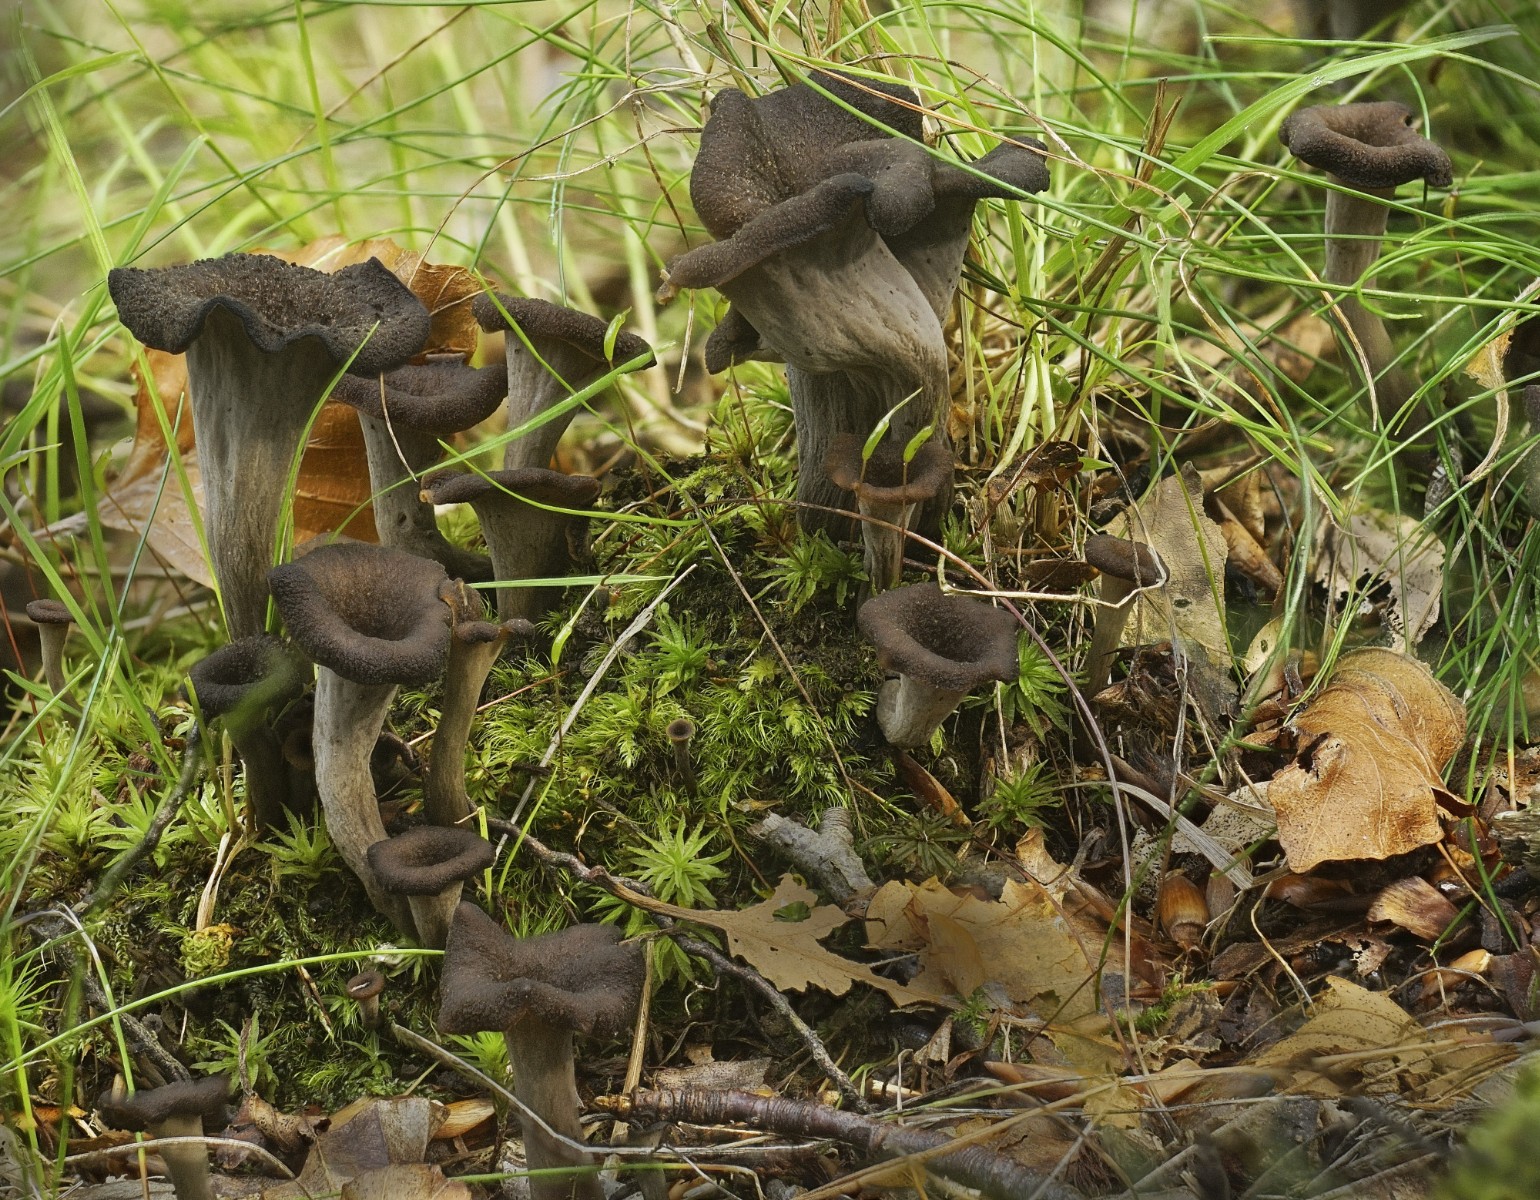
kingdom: Fungi
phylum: Basidiomycota
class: Agaricomycetes
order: Cantharellales
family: Hydnaceae
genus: Craterellus
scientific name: Craterellus cornucopioides
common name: trompetsvamp
